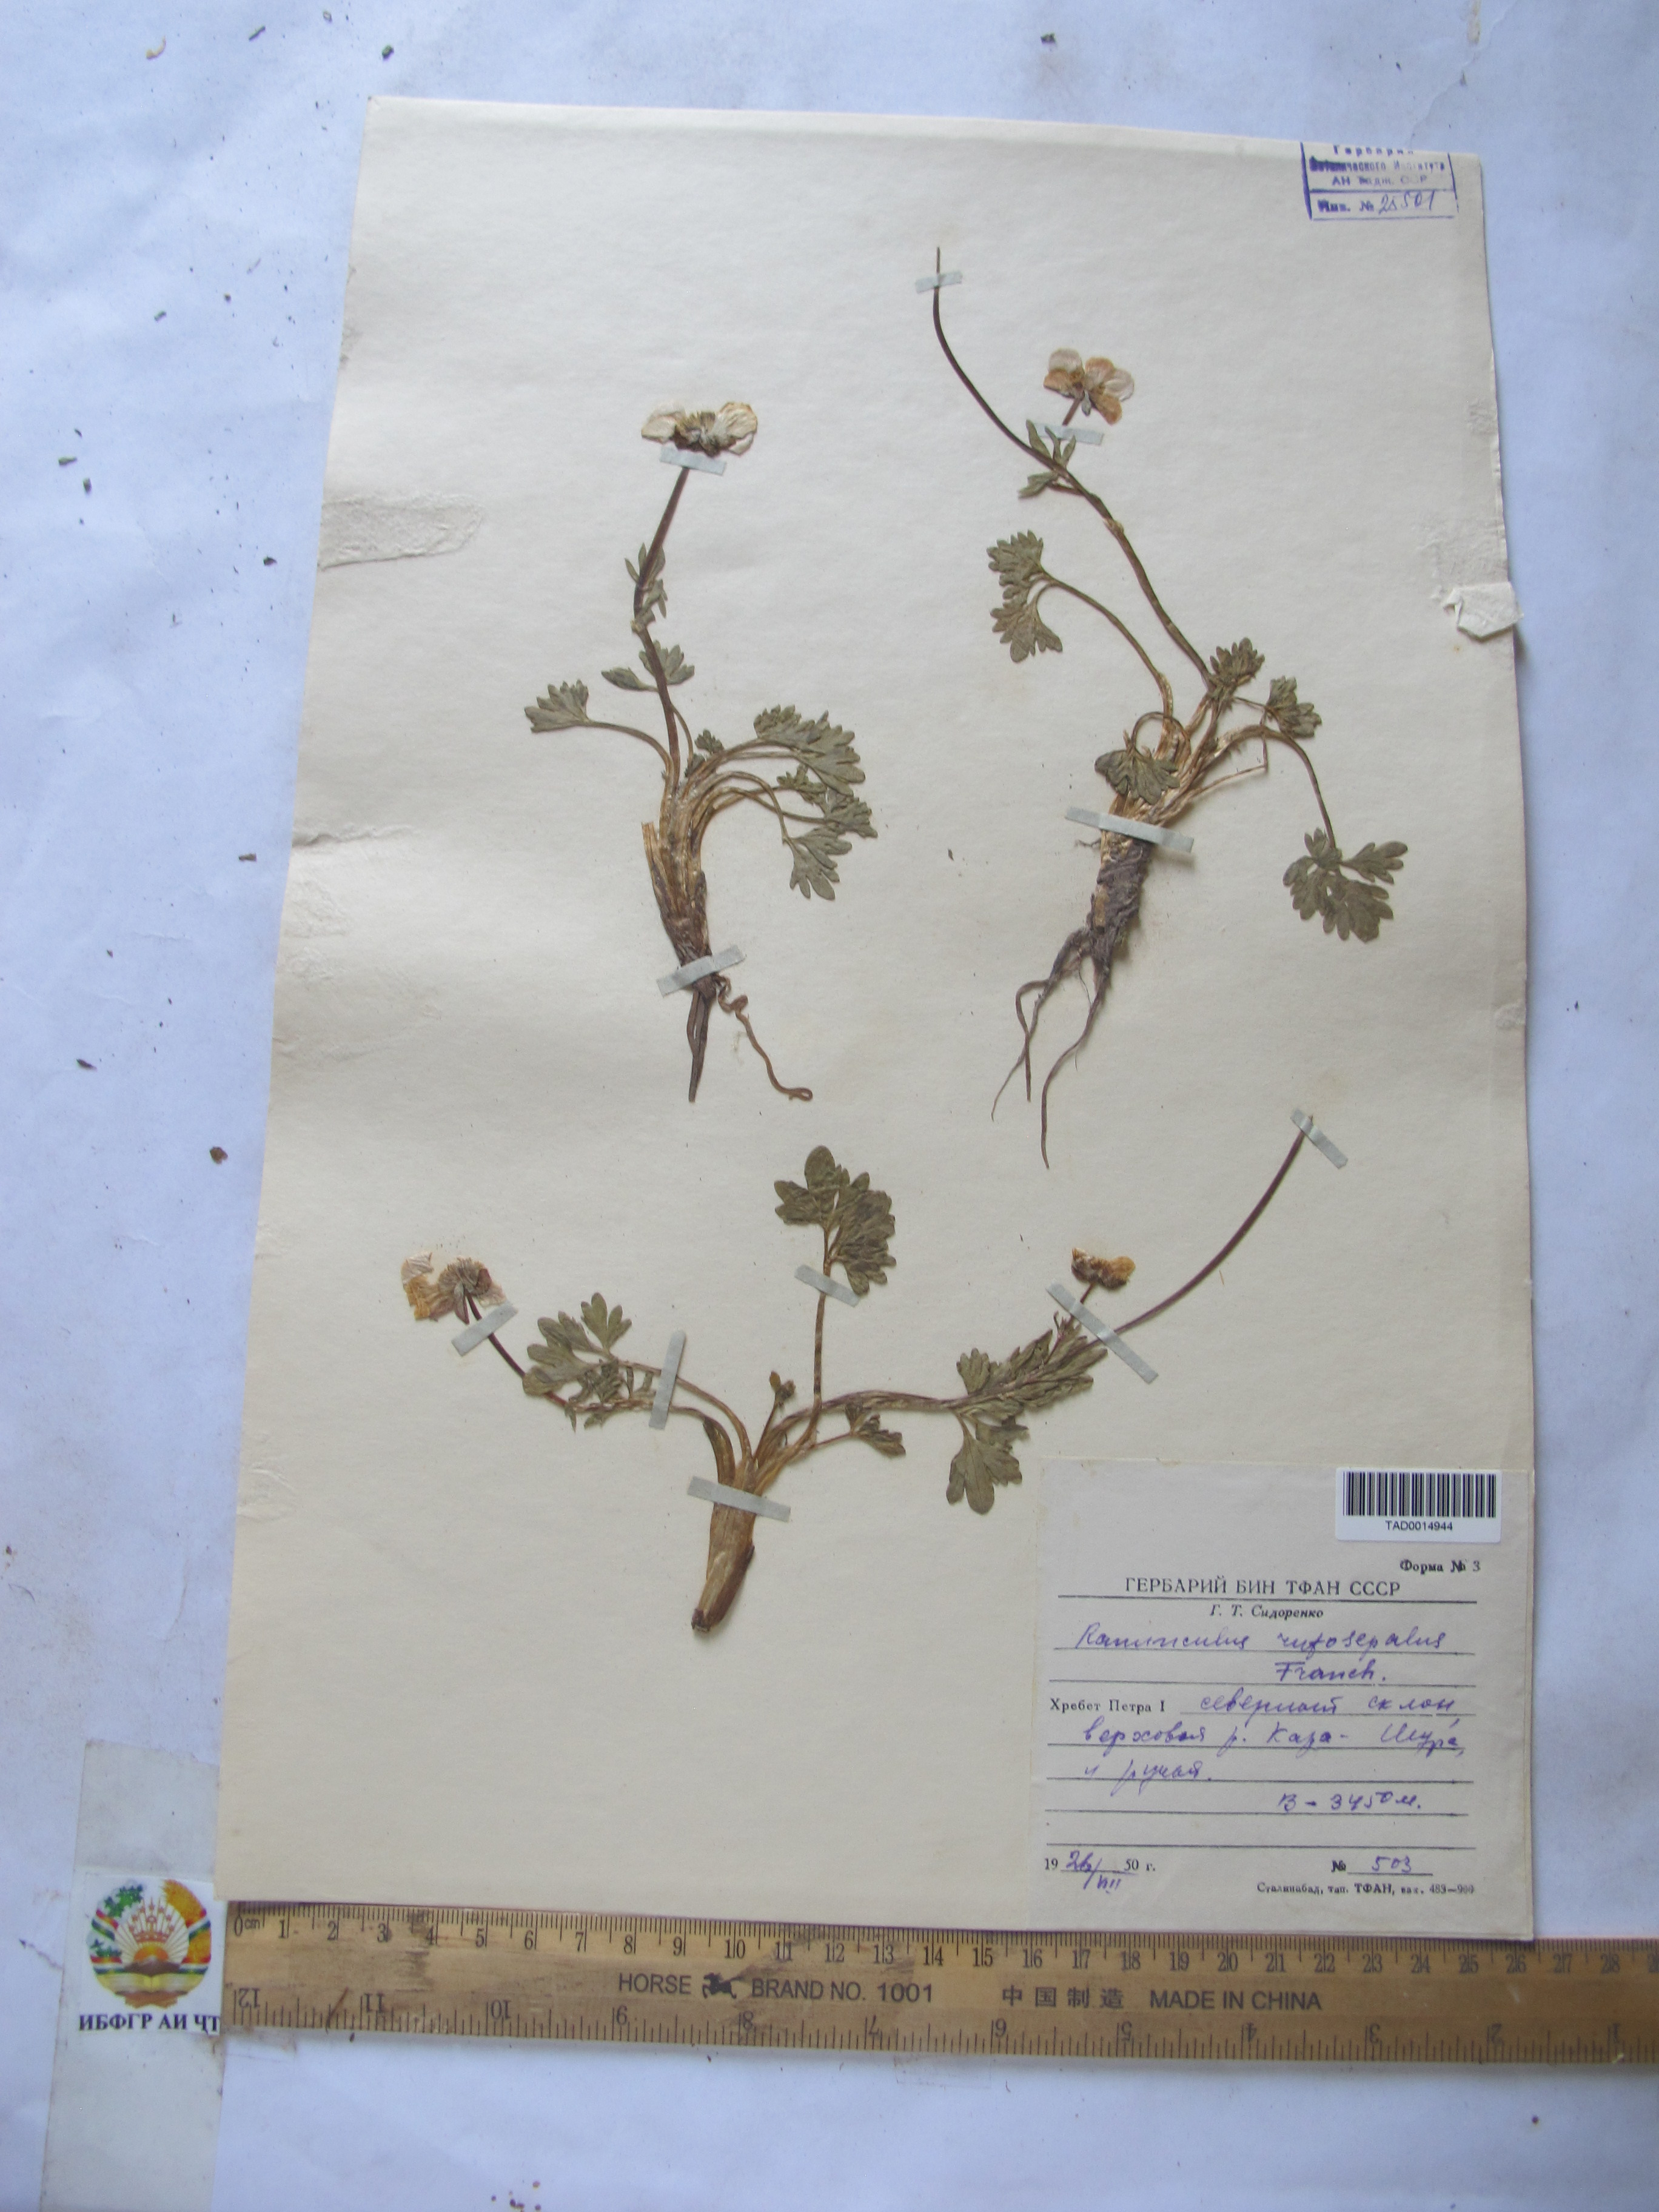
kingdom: Plantae
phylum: Tracheophyta
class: Magnoliopsida
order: Ranunculales
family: Ranunculaceae
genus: Ranunculus
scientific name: Ranunculus rufosepalus
